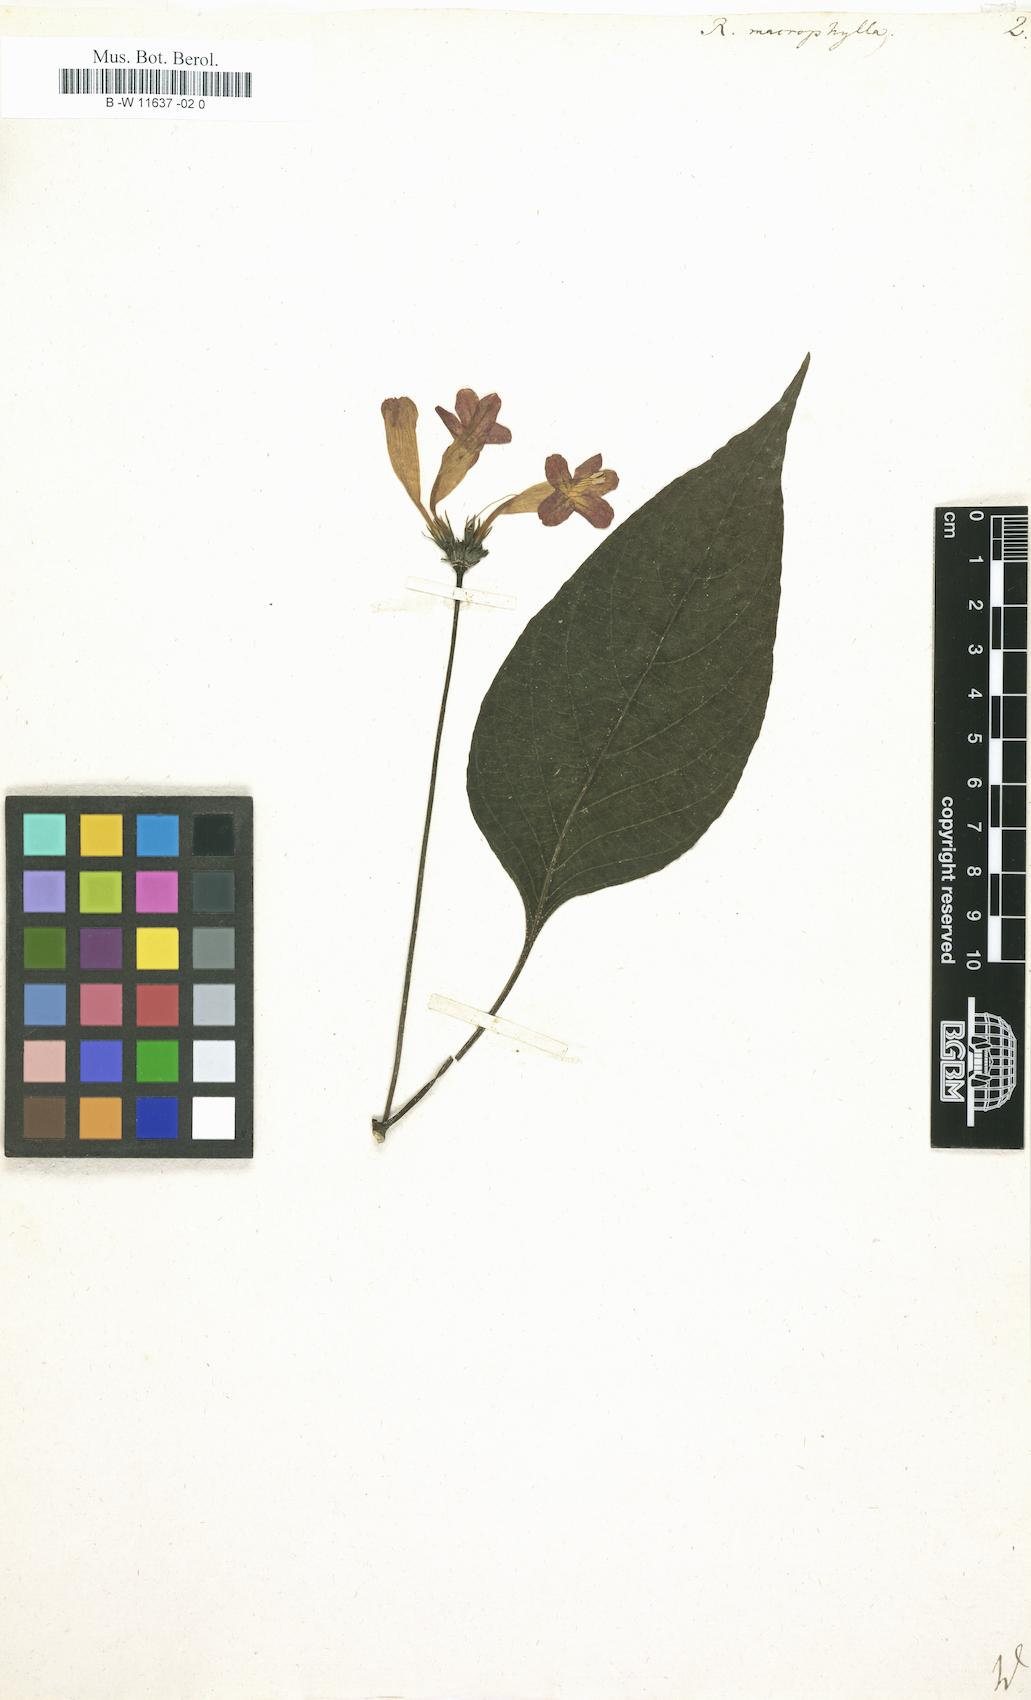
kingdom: Plantae
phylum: Tracheophyta
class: Magnoliopsida
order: Lamiales
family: Acanthaceae
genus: Ruellia
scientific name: Ruellia macrophylla
